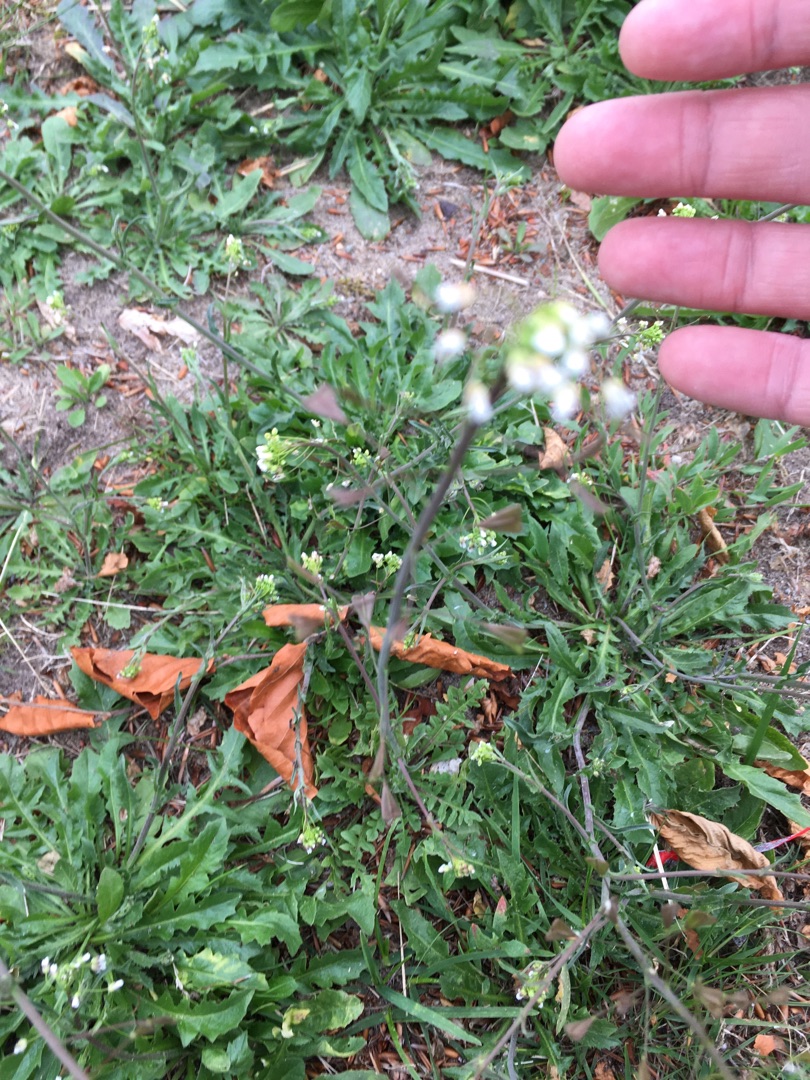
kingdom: Plantae
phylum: Tracheophyta
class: Magnoliopsida
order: Brassicales
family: Brassicaceae
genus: Capsella
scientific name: Capsella bursa-pastoris
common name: Hyrdetaske
